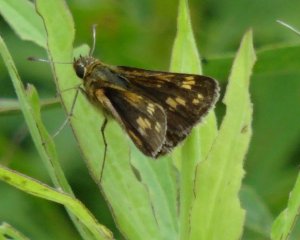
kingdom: Animalia
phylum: Arthropoda
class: Insecta
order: Lepidoptera
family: Hesperiidae
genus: Vernia
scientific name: Vernia verna
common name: Little Glassywing
